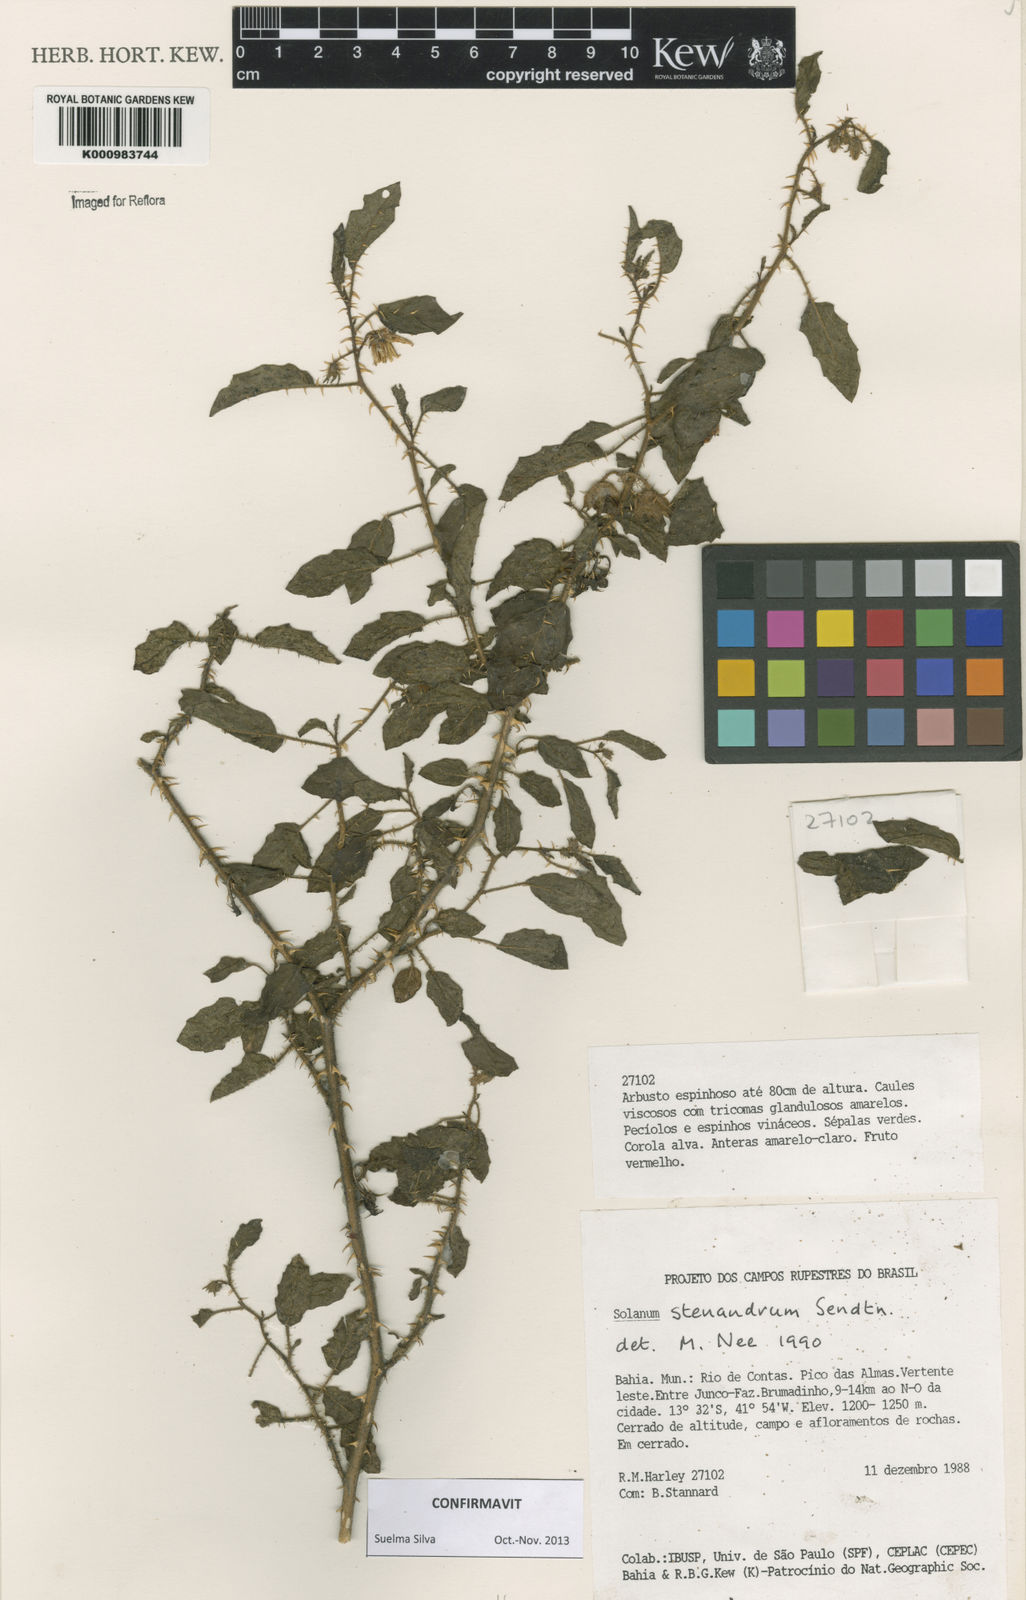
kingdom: Plantae
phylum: Tracheophyta
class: Magnoliopsida
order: Solanales
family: Solanaceae
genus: Solanum
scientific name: Solanum stenandrum
